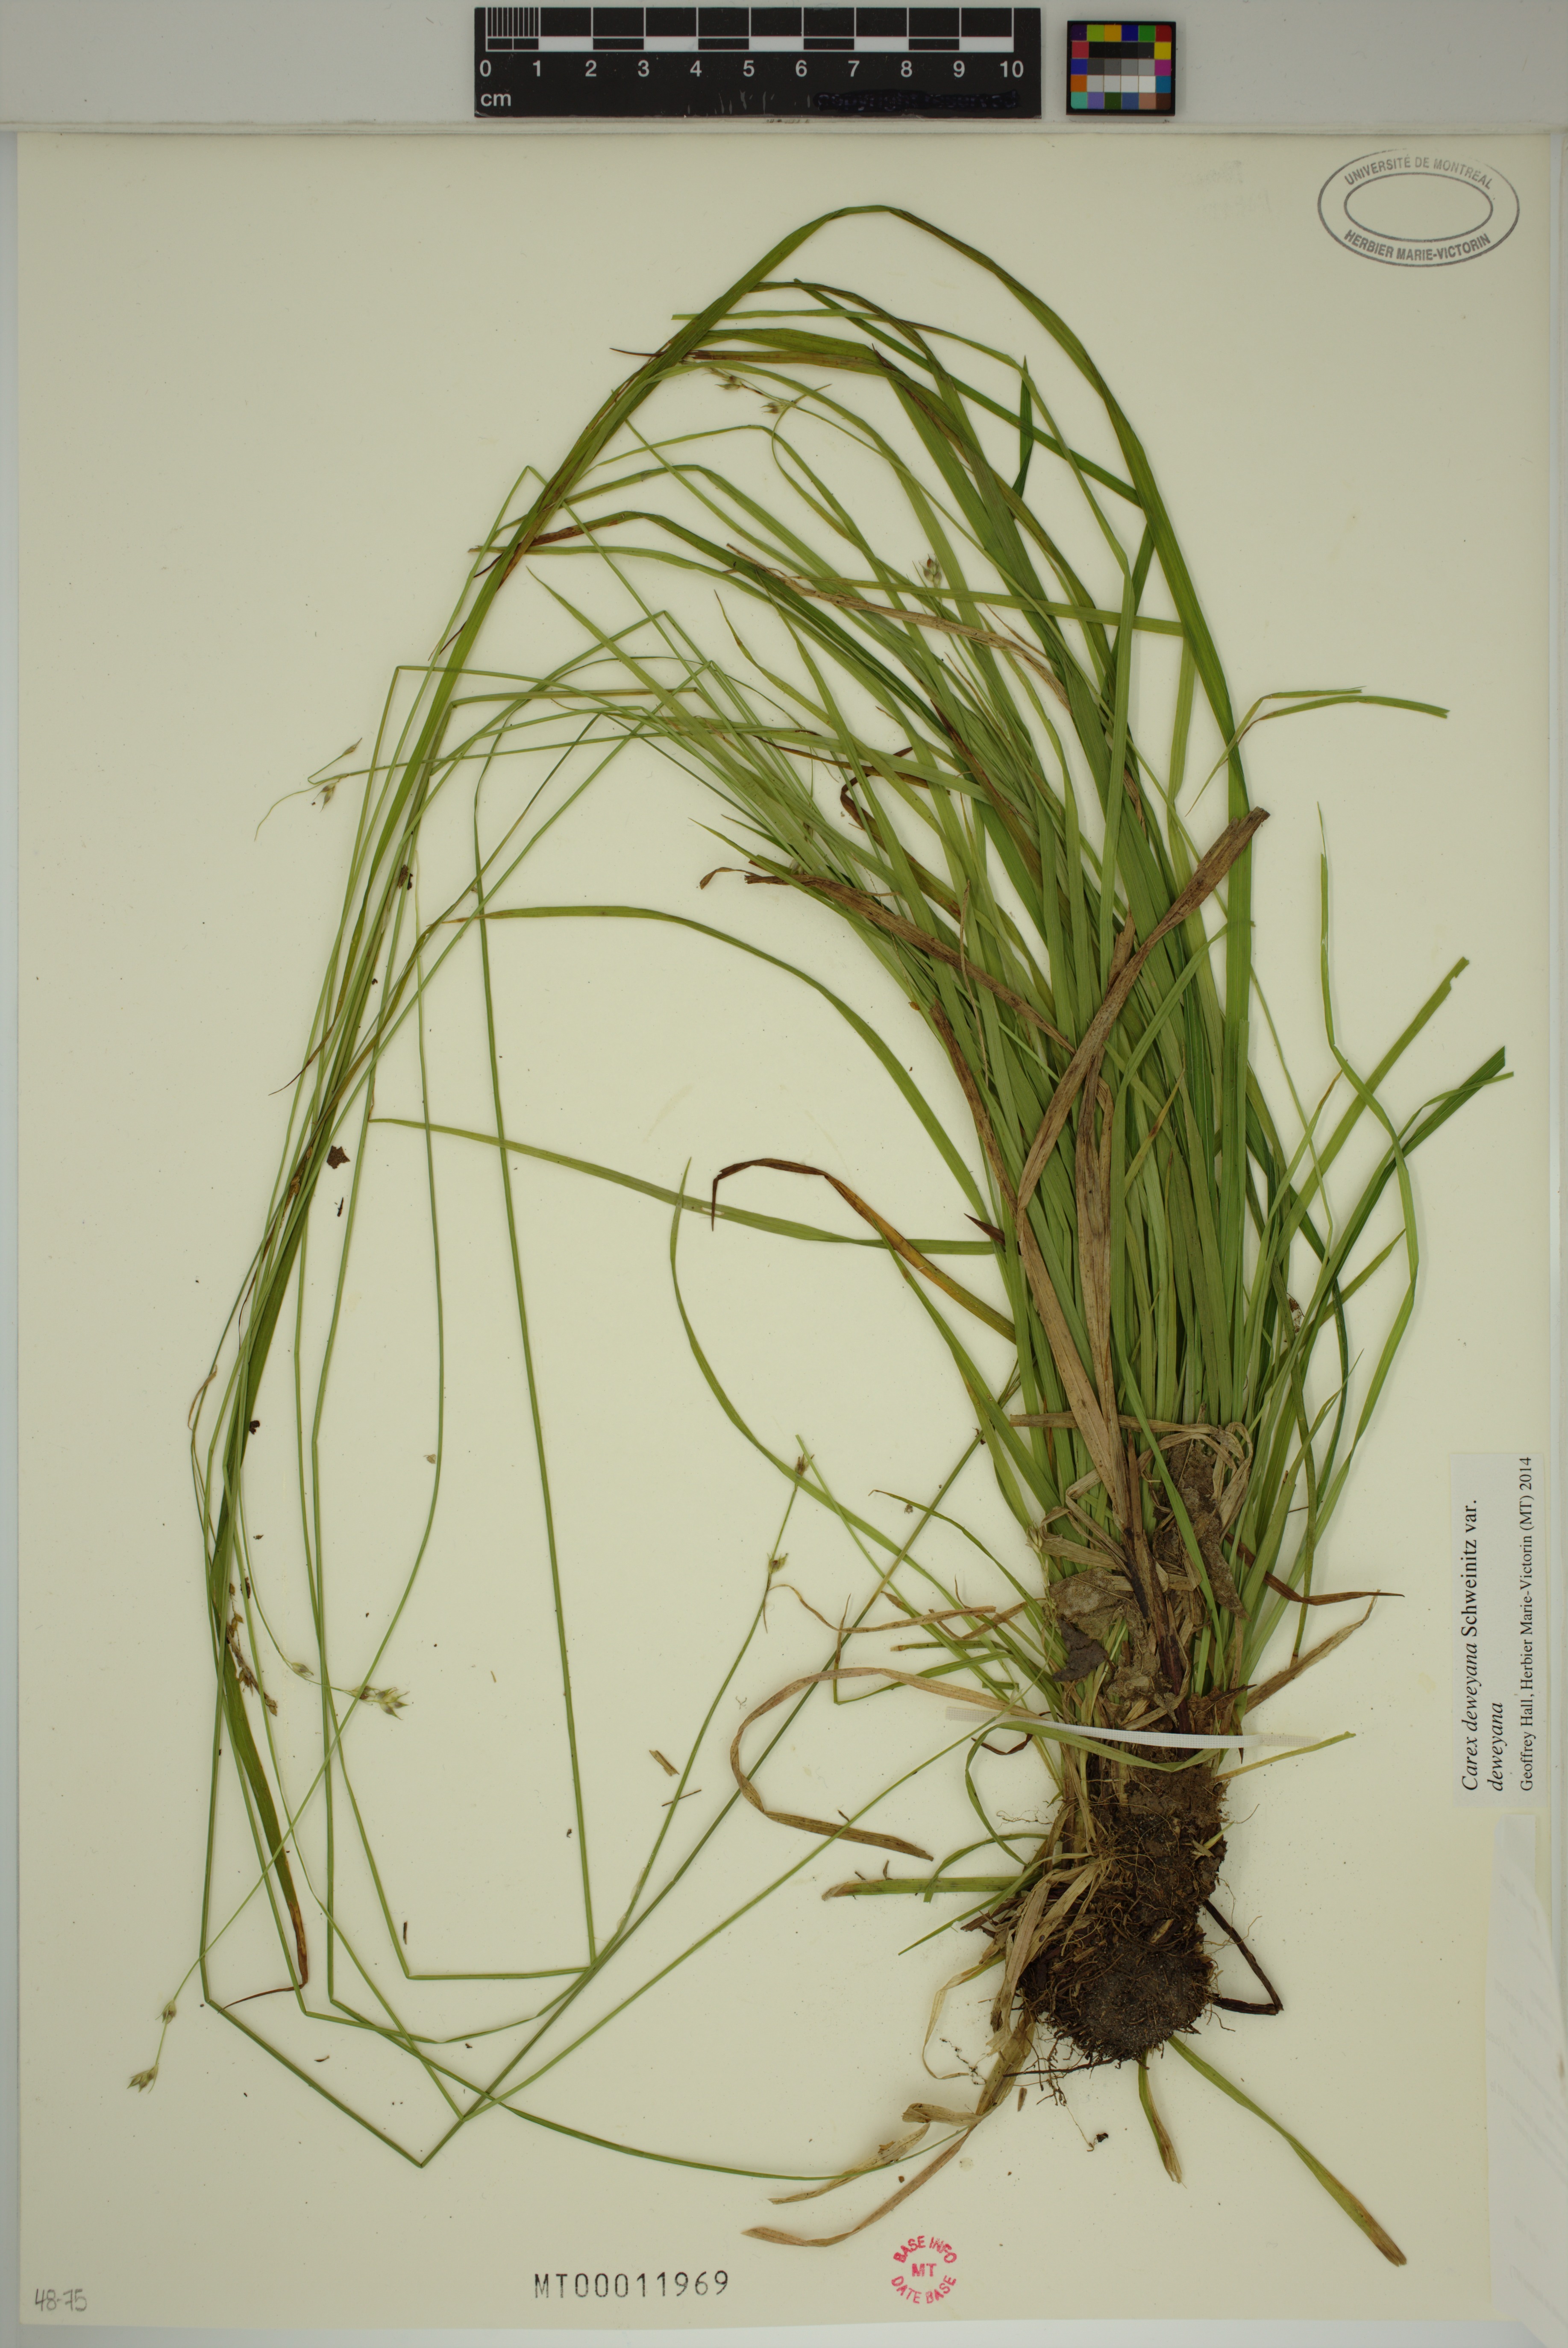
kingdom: Plantae
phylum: Tracheophyta
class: Liliopsida
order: Poales
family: Cyperaceae
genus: Carex
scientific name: Carex deweyana
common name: Dewey's sedge
